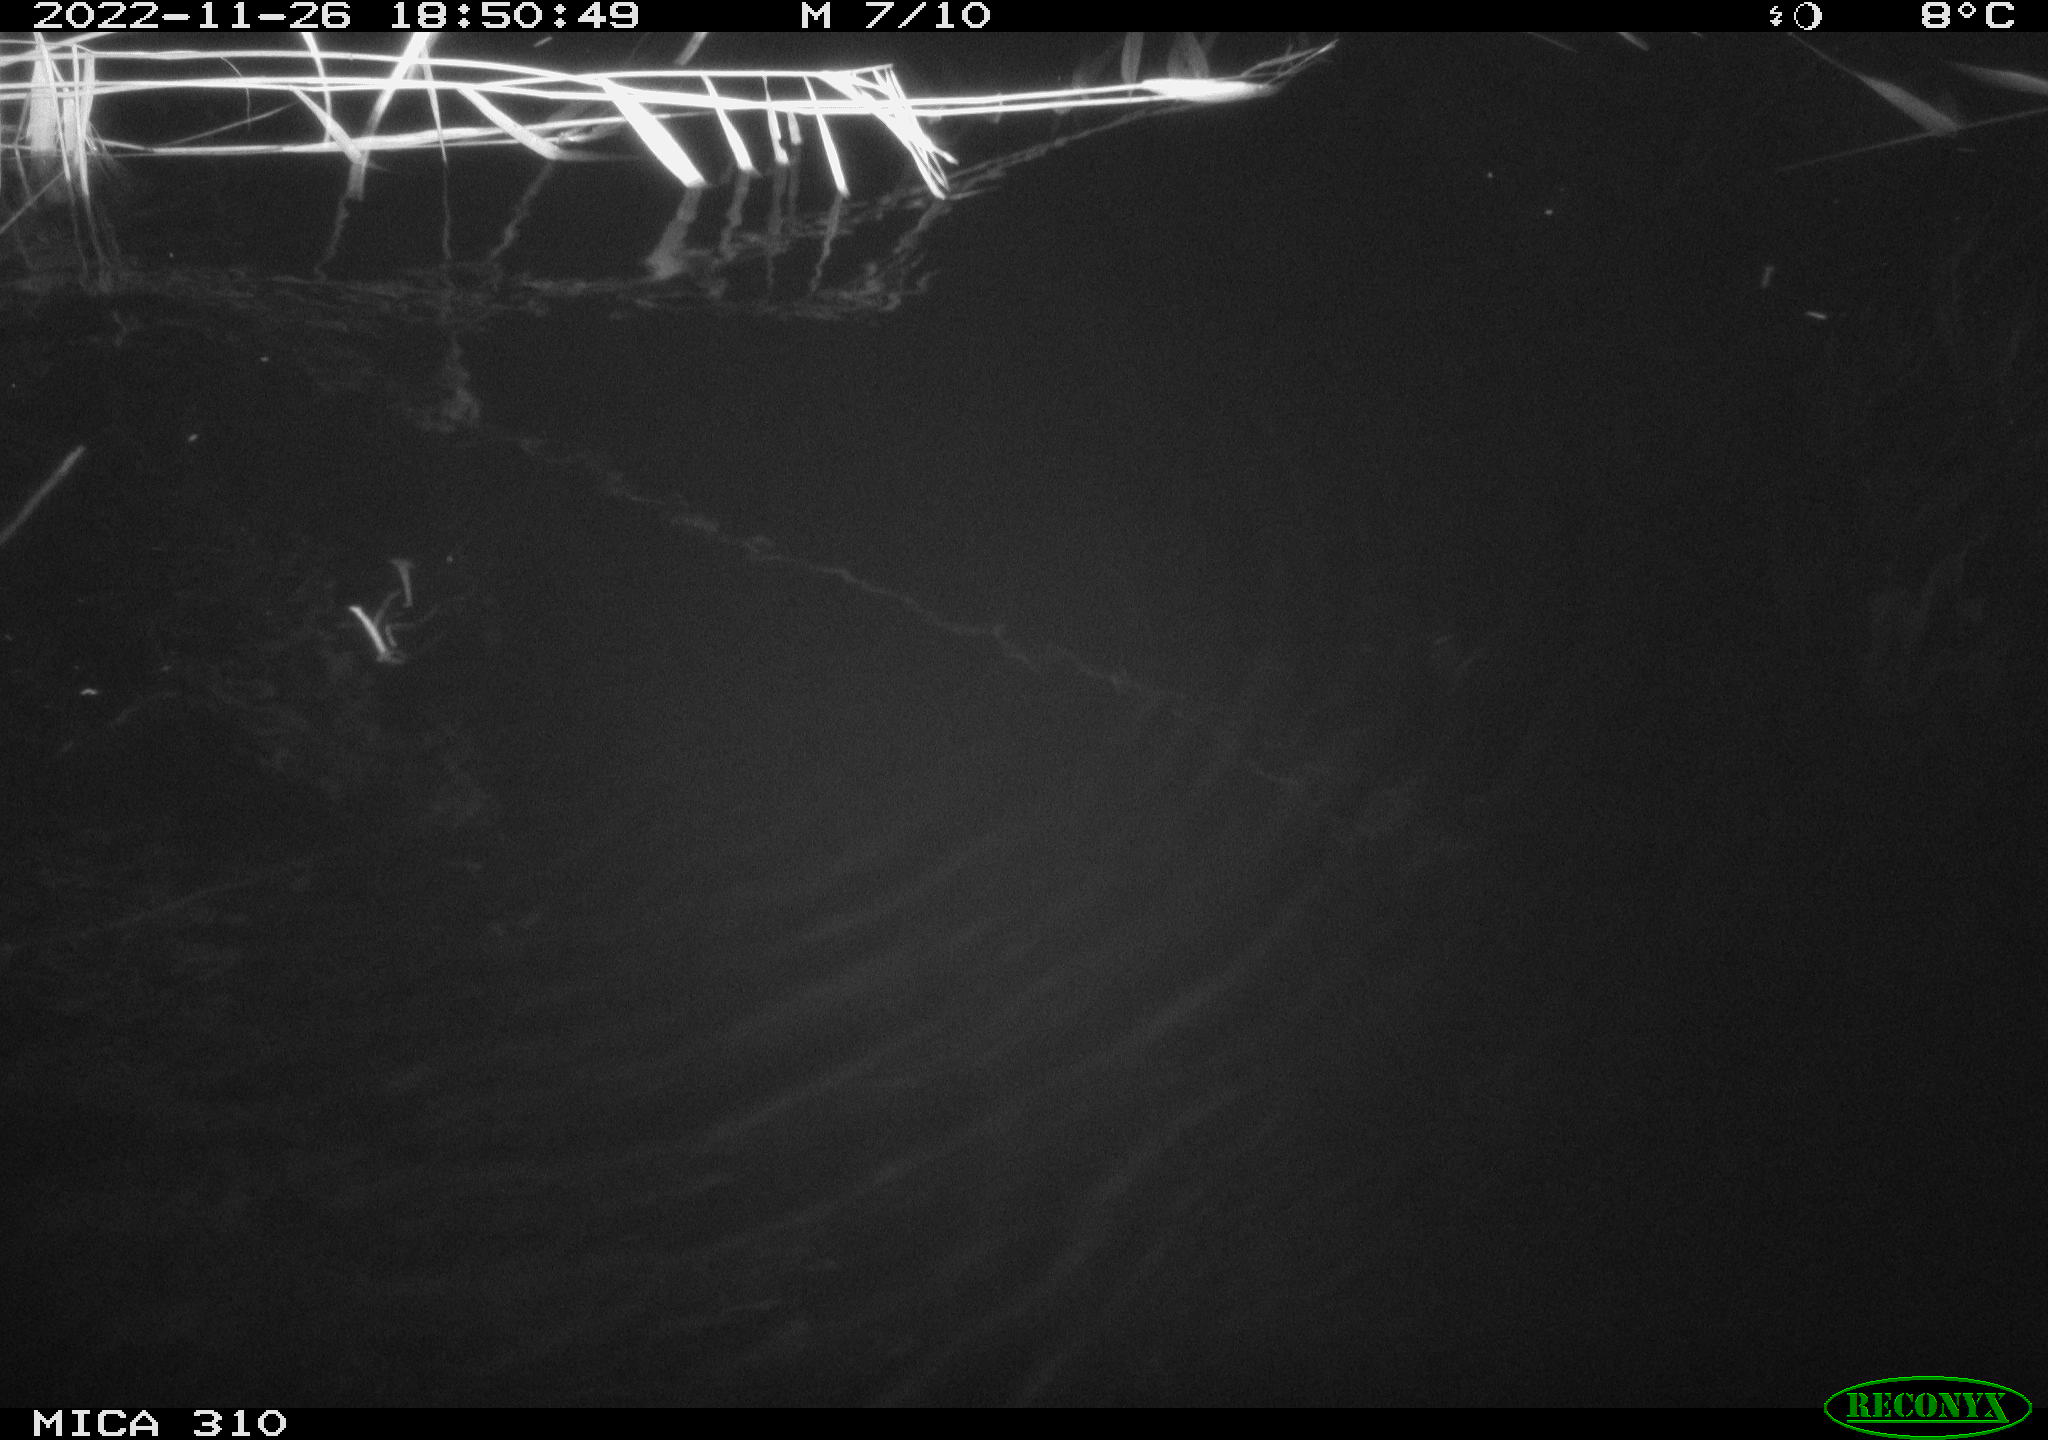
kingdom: Animalia
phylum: Chordata
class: Mammalia
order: Rodentia
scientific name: Rodentia
